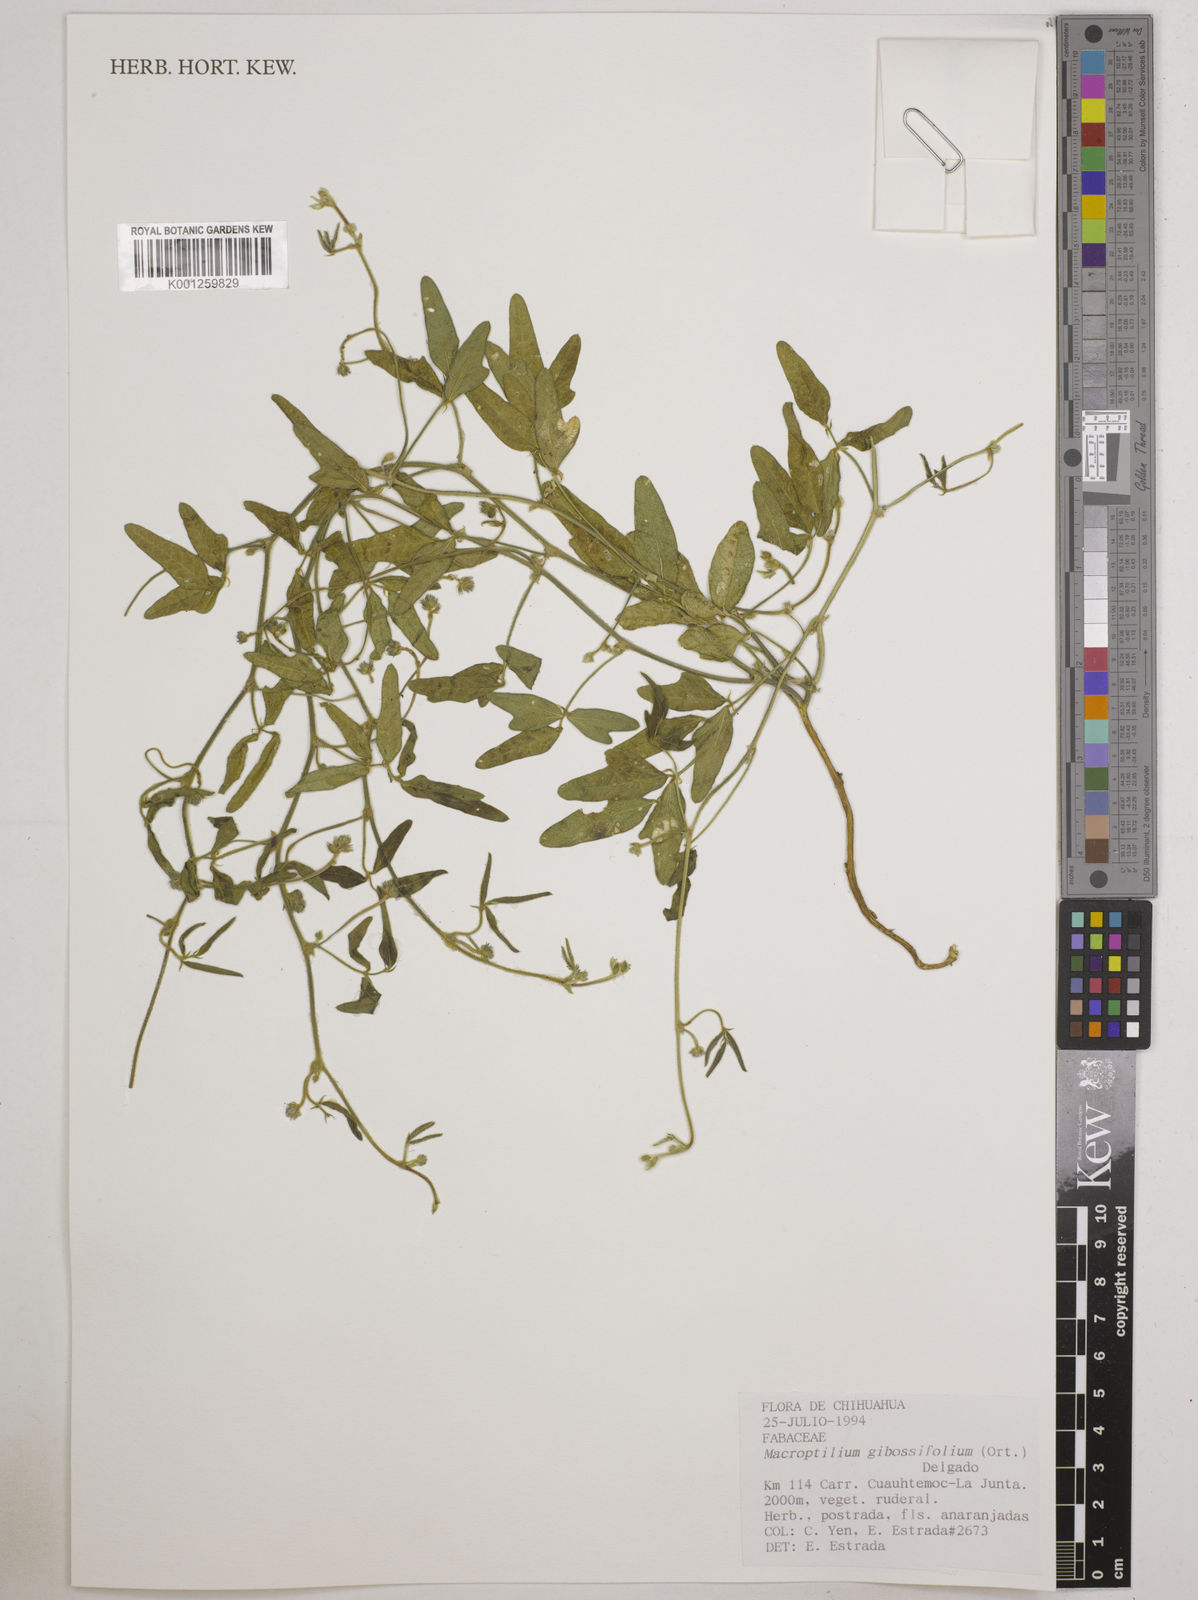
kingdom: Plantae
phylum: Tracheophyta
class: Magnoliopsida
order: Fabales
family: Fabaceae
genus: Macroptilium
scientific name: Macroptilium gibbosifolium
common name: Variableleaf bushbean
